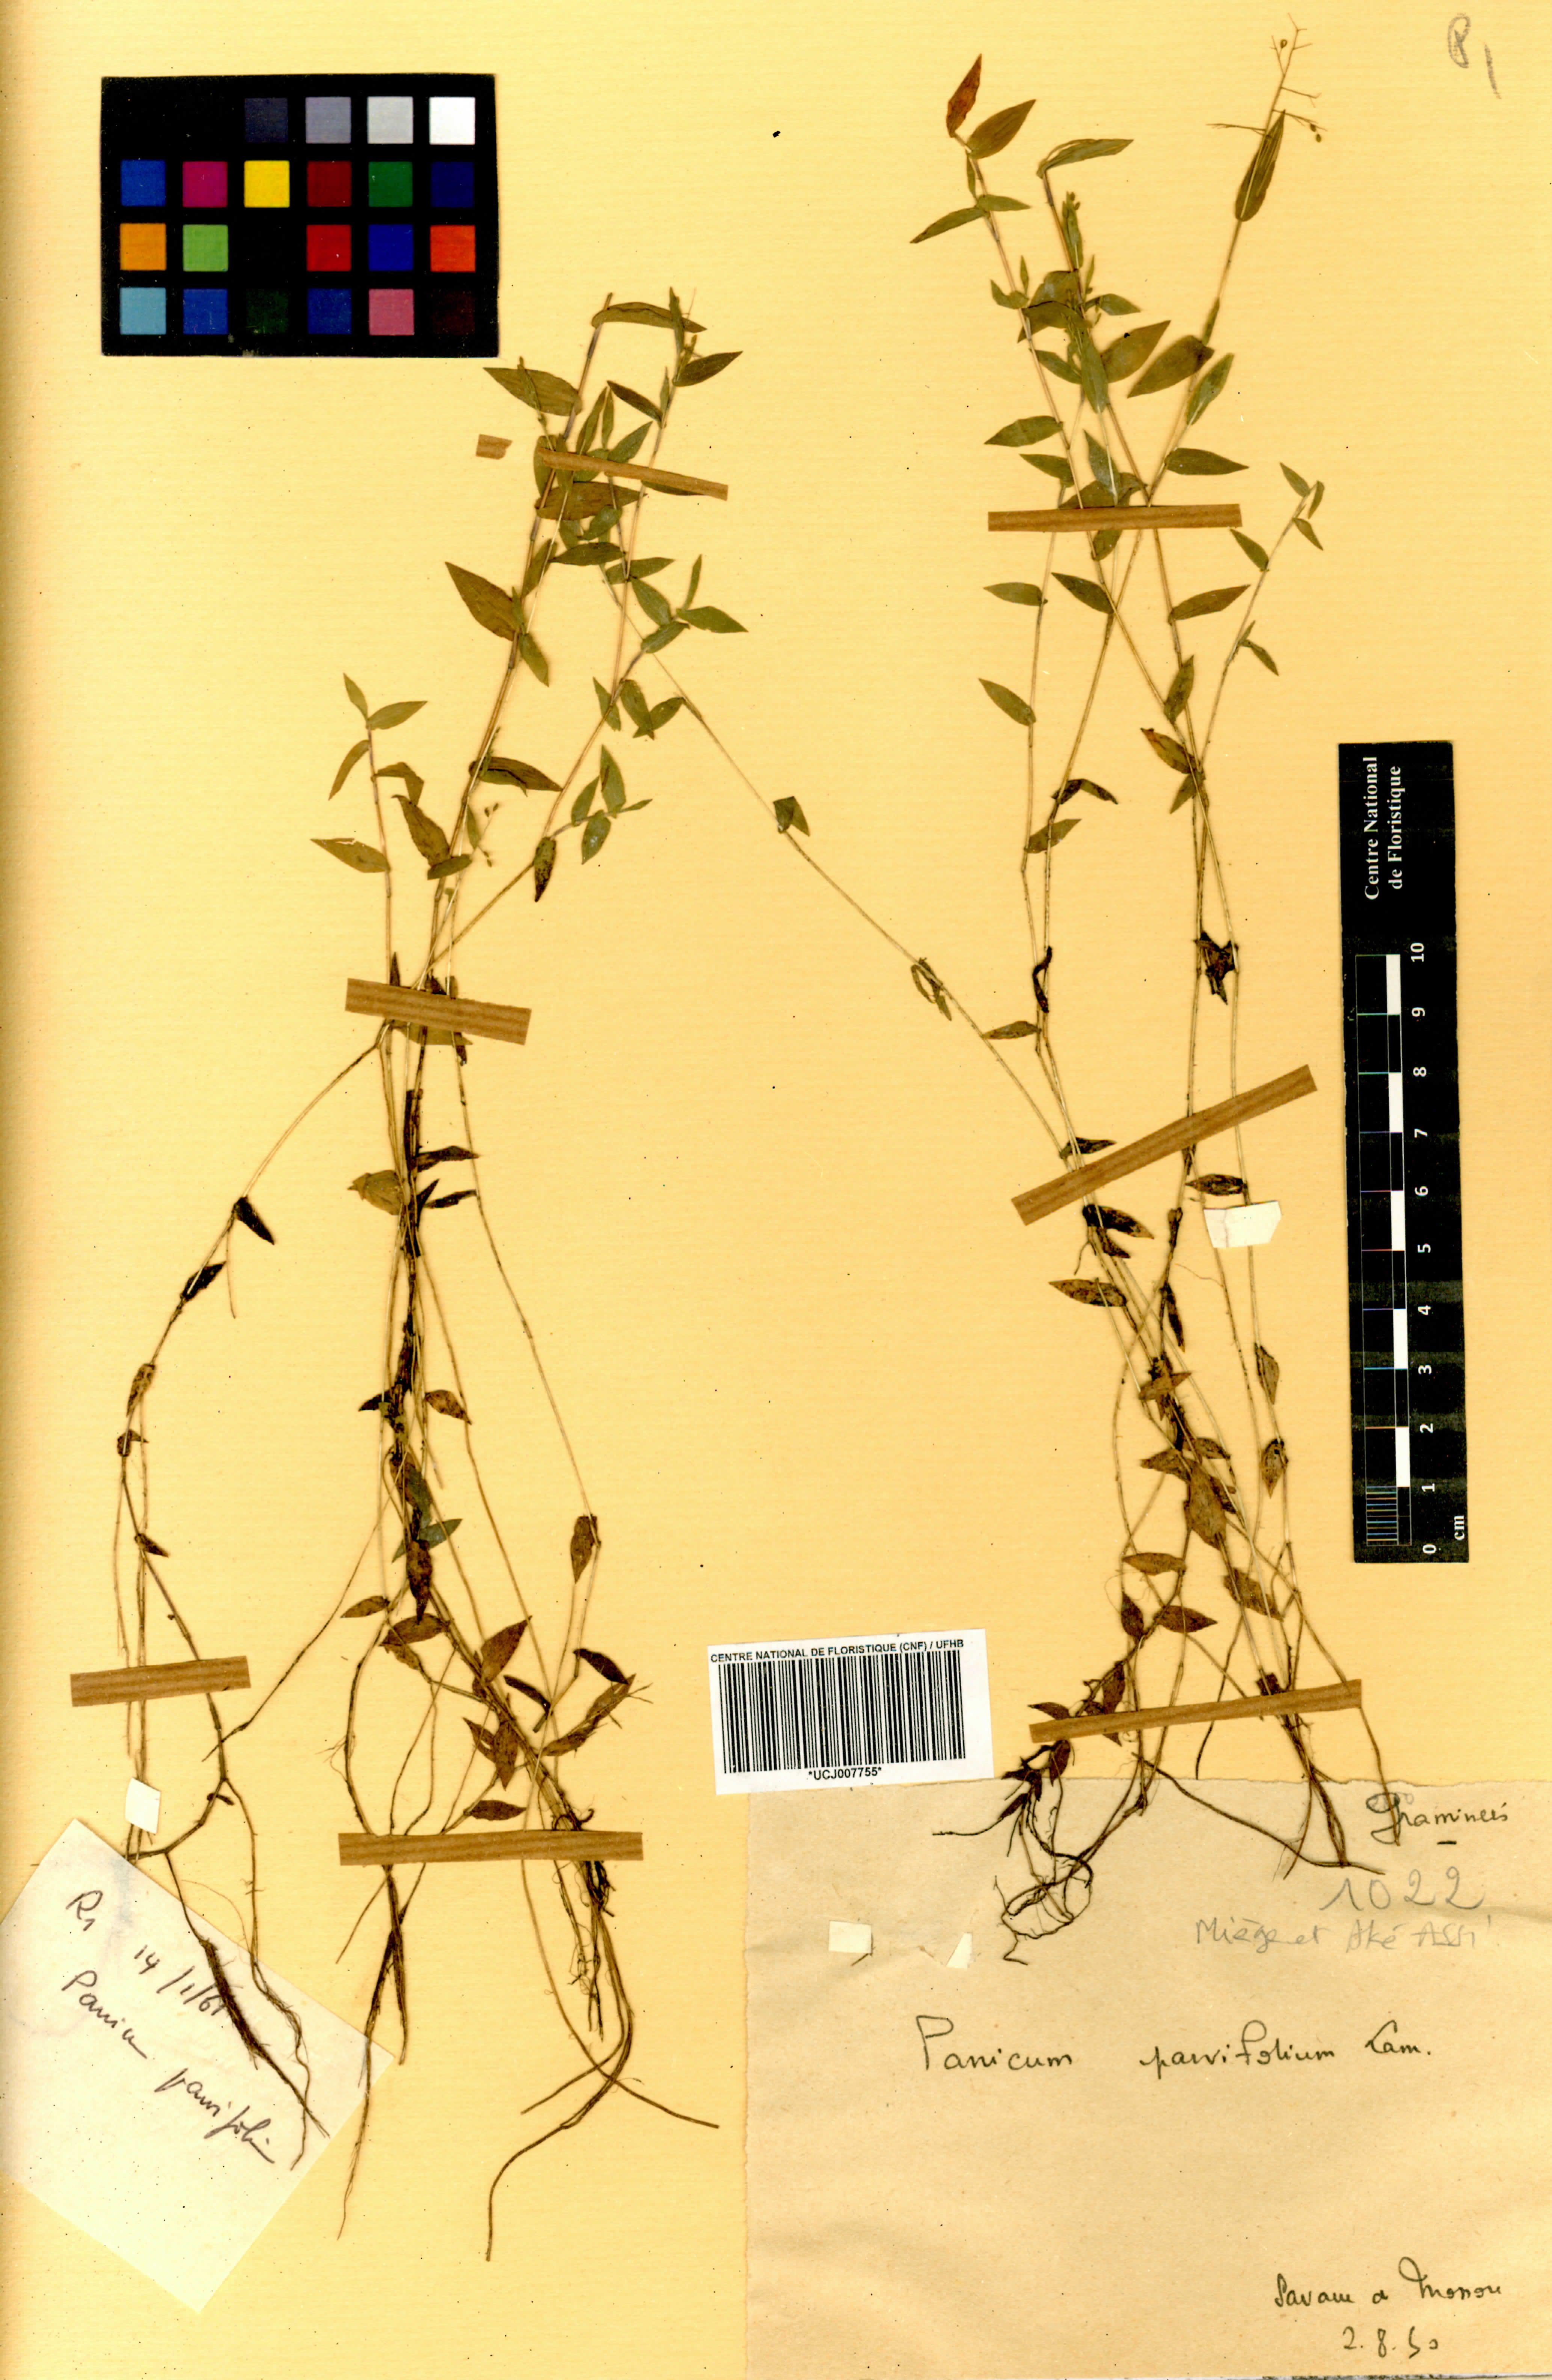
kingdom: Plantae
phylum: Tracheophyta
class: Liliopsida
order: Poales
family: Poaceae
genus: Trichanthecium
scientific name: Trichanthecium parvifolium
